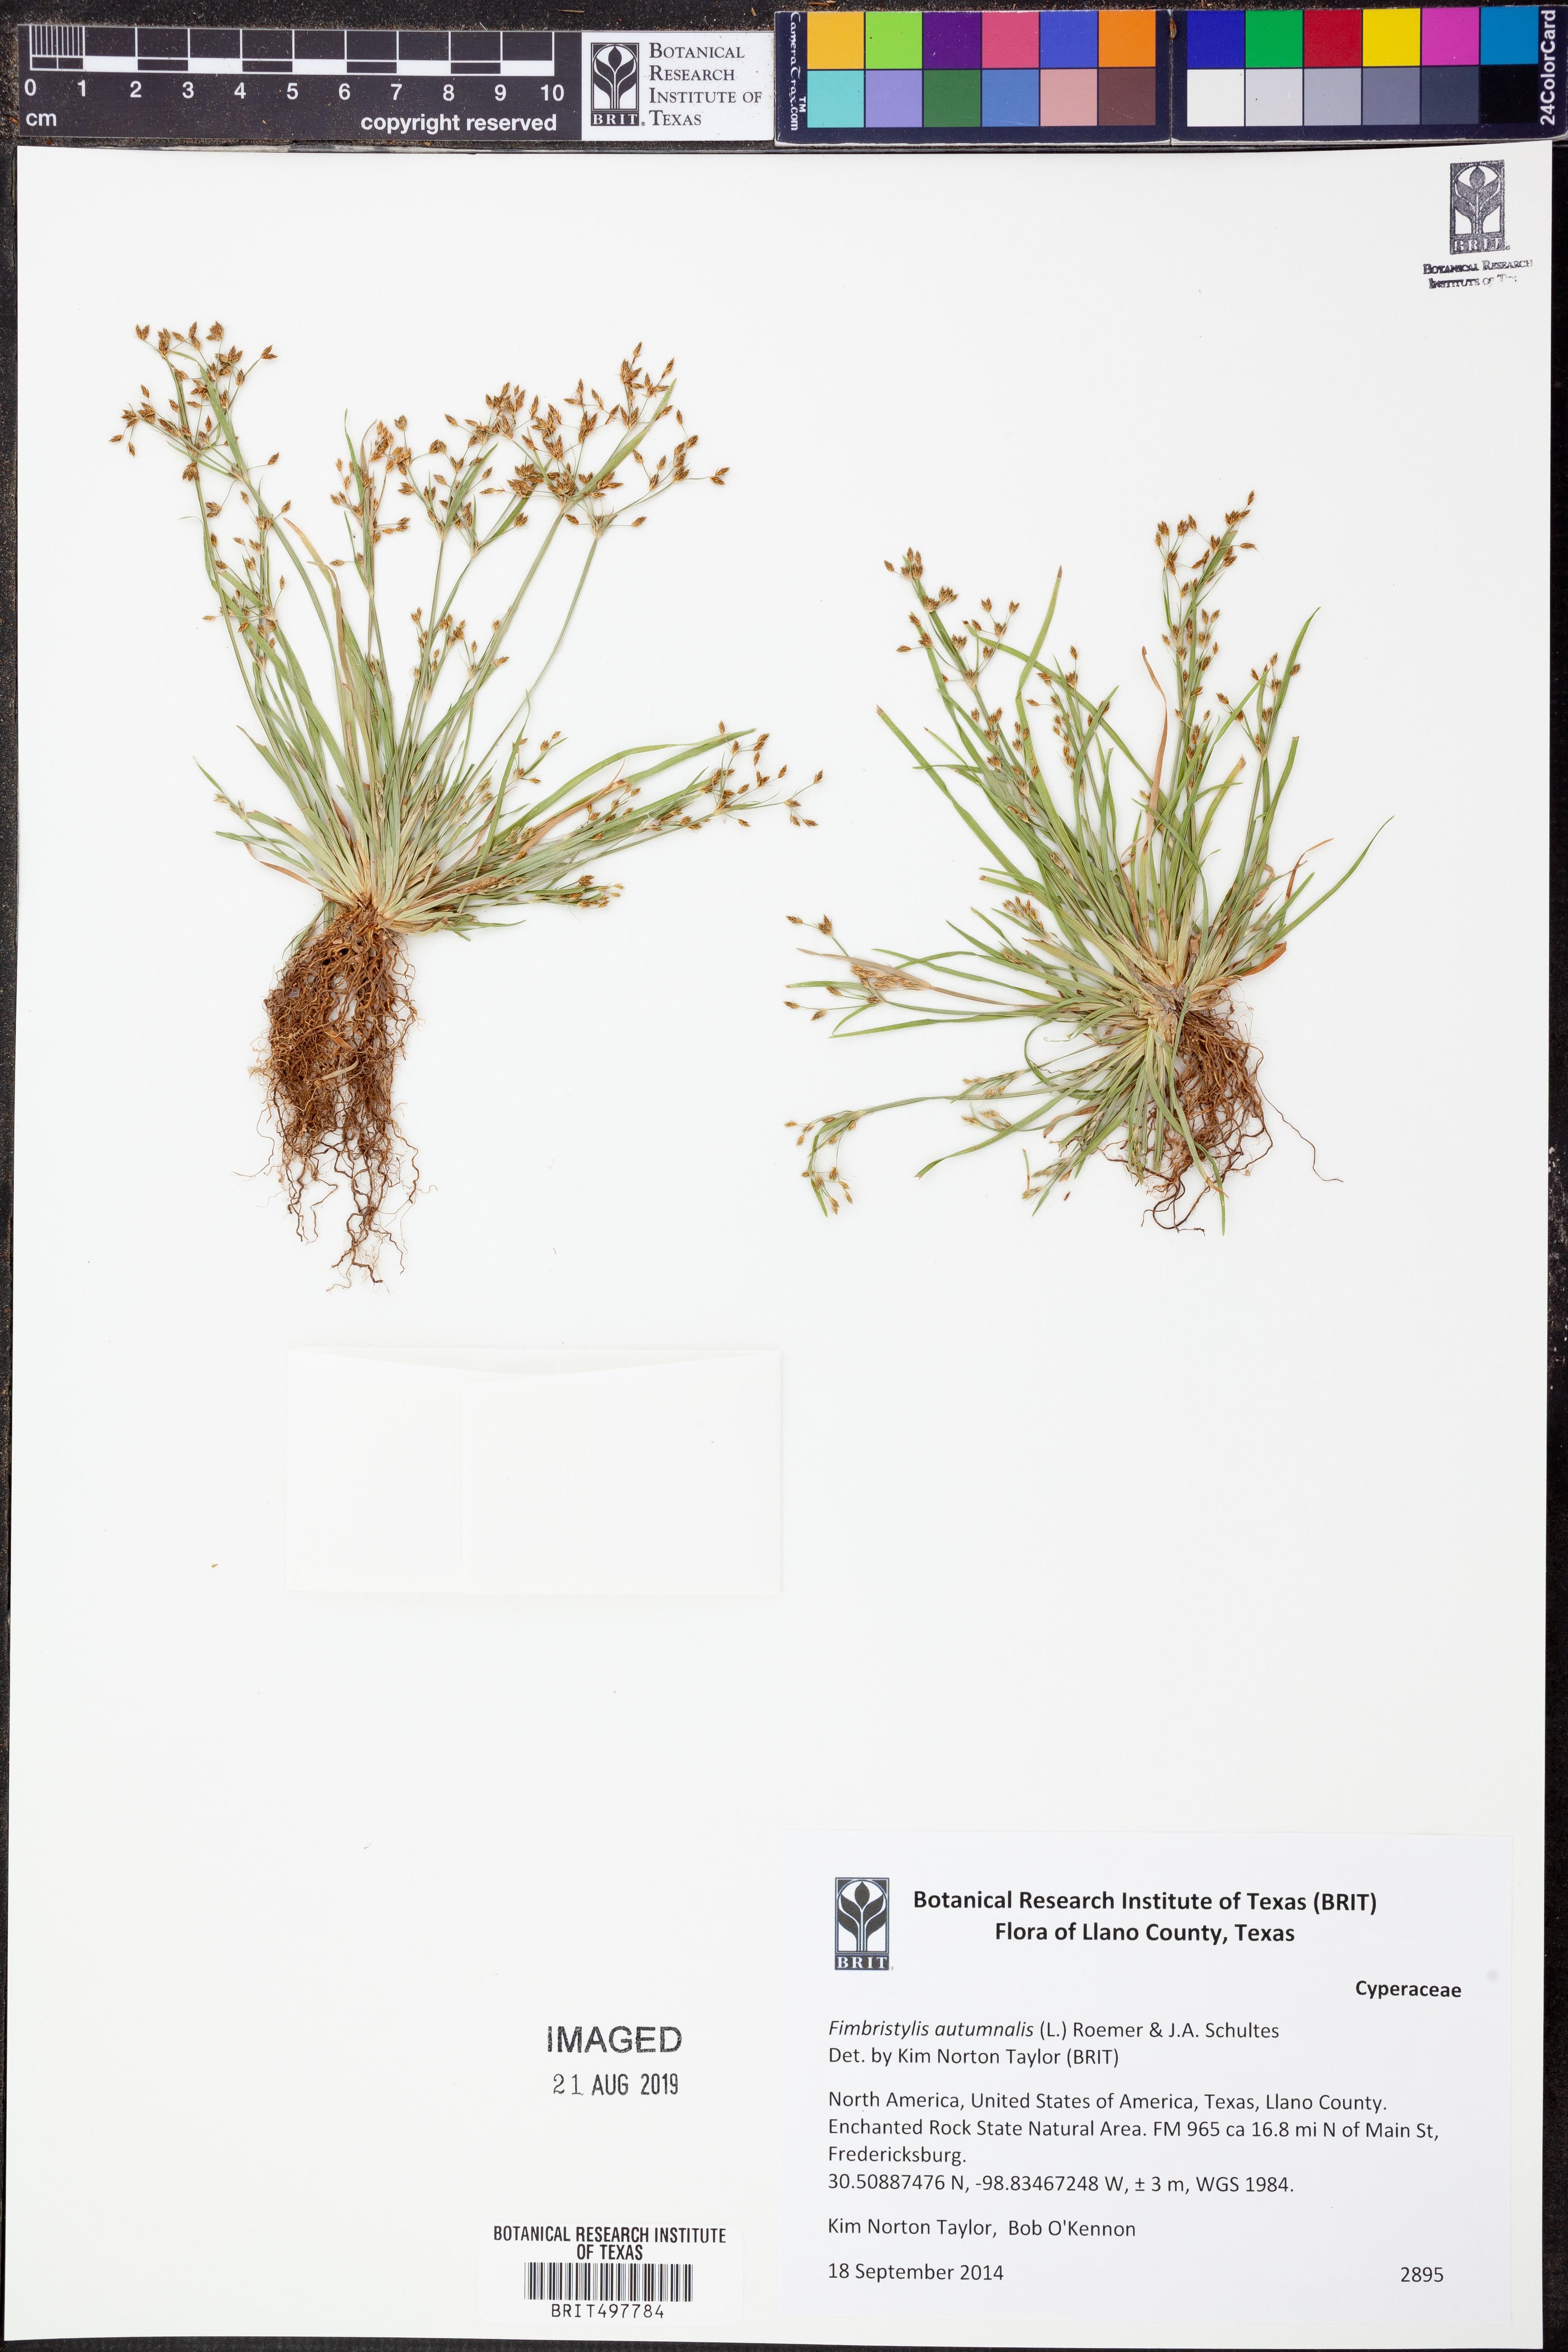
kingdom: Plantae
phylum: Tracheophyta
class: Liliopsida
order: Poales
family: Cyperaceae
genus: Fimbristylis
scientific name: Fimbristylis autumnalis
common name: Slender fimbristylis
